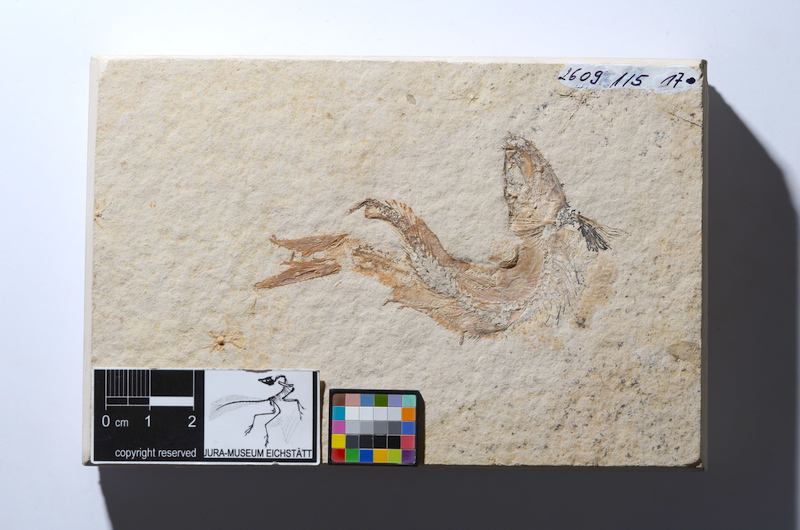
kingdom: Animalia
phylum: Chordata
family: Ascalaboidae
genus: Tharsis
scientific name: Tharsis dubius
